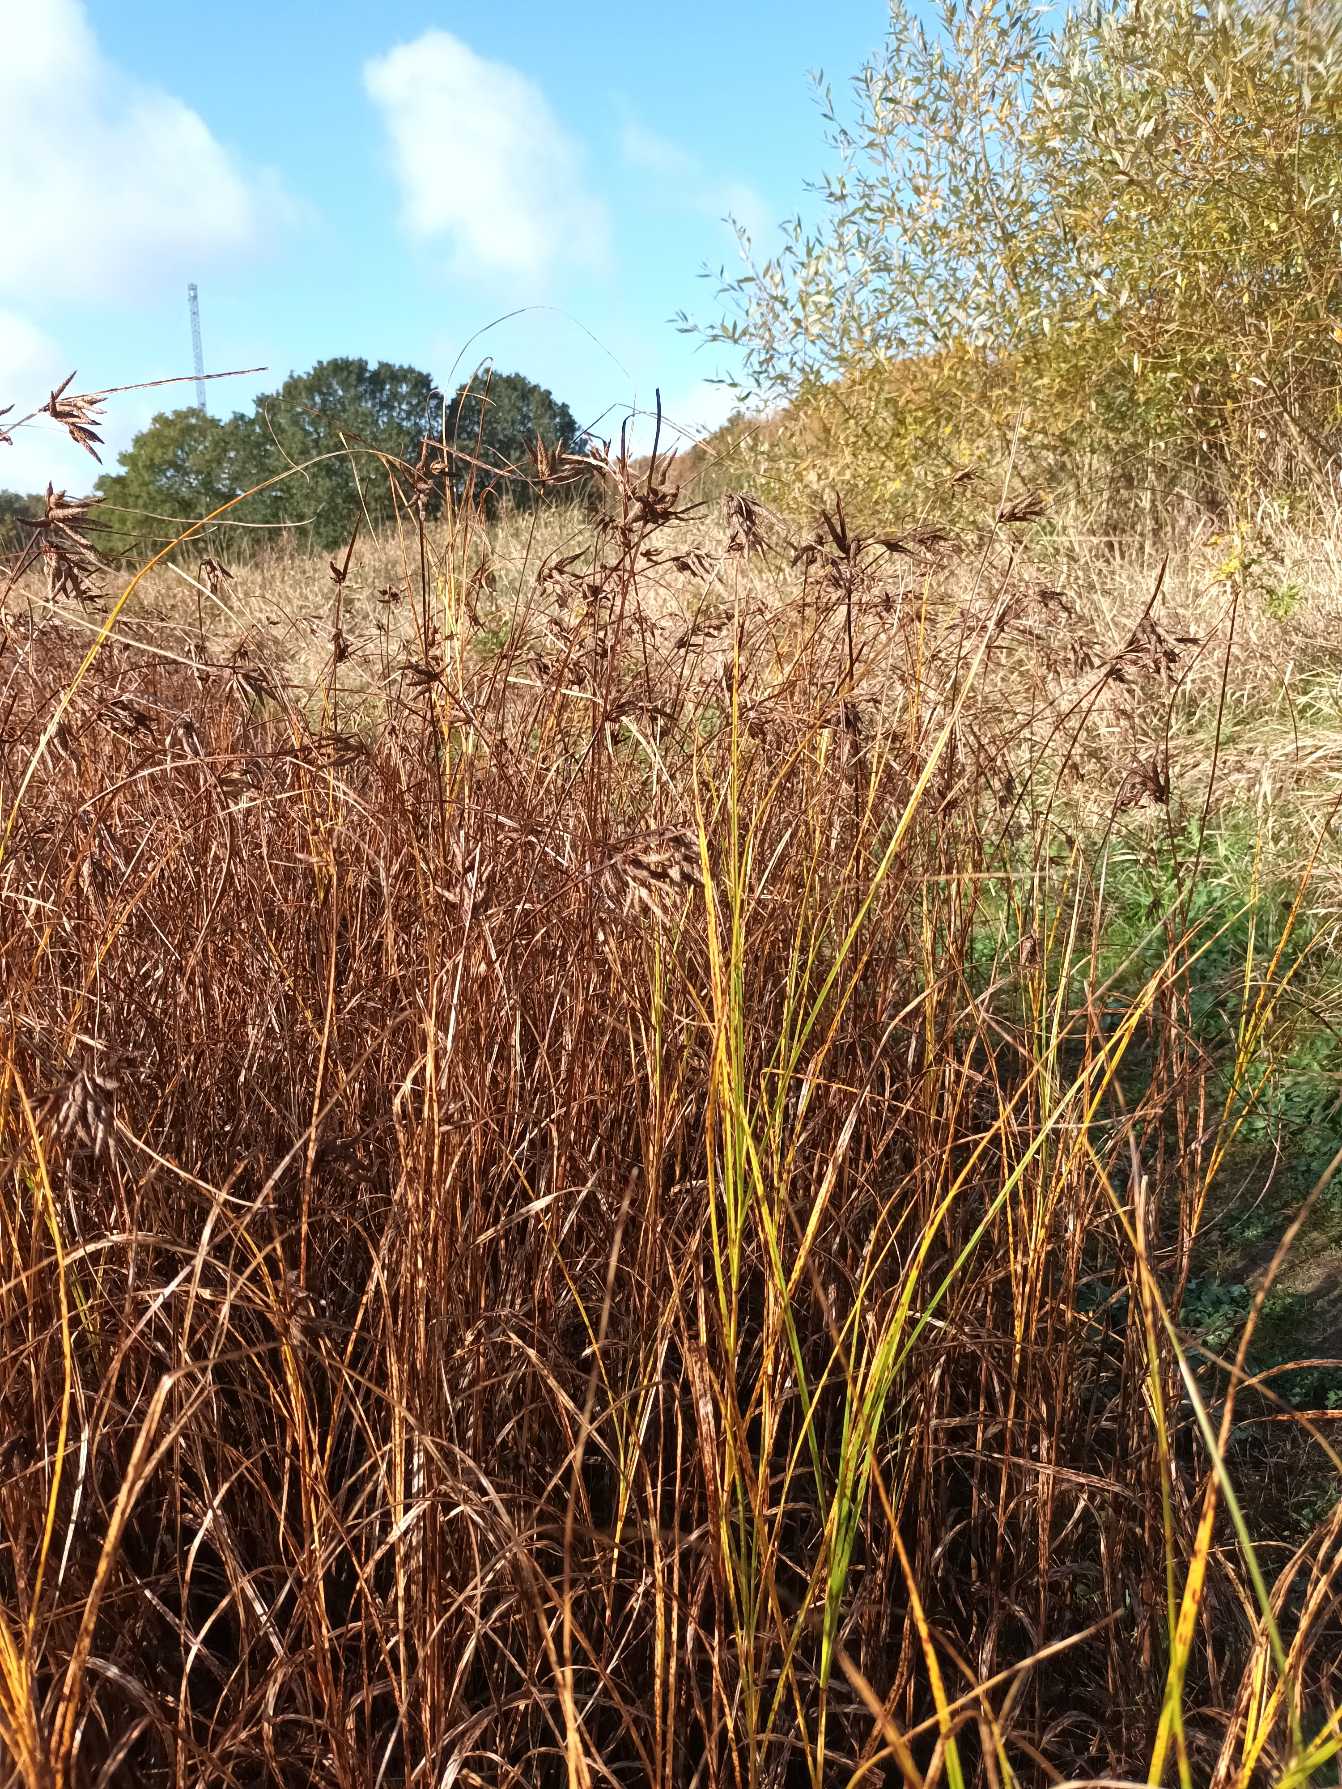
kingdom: Plantae
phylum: Tracheophyta
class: Liliopsida
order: Poales
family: Cyperaceae
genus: Bolboschoenus
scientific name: Bolboschoenus maritimus
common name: Strand-kogleaks
